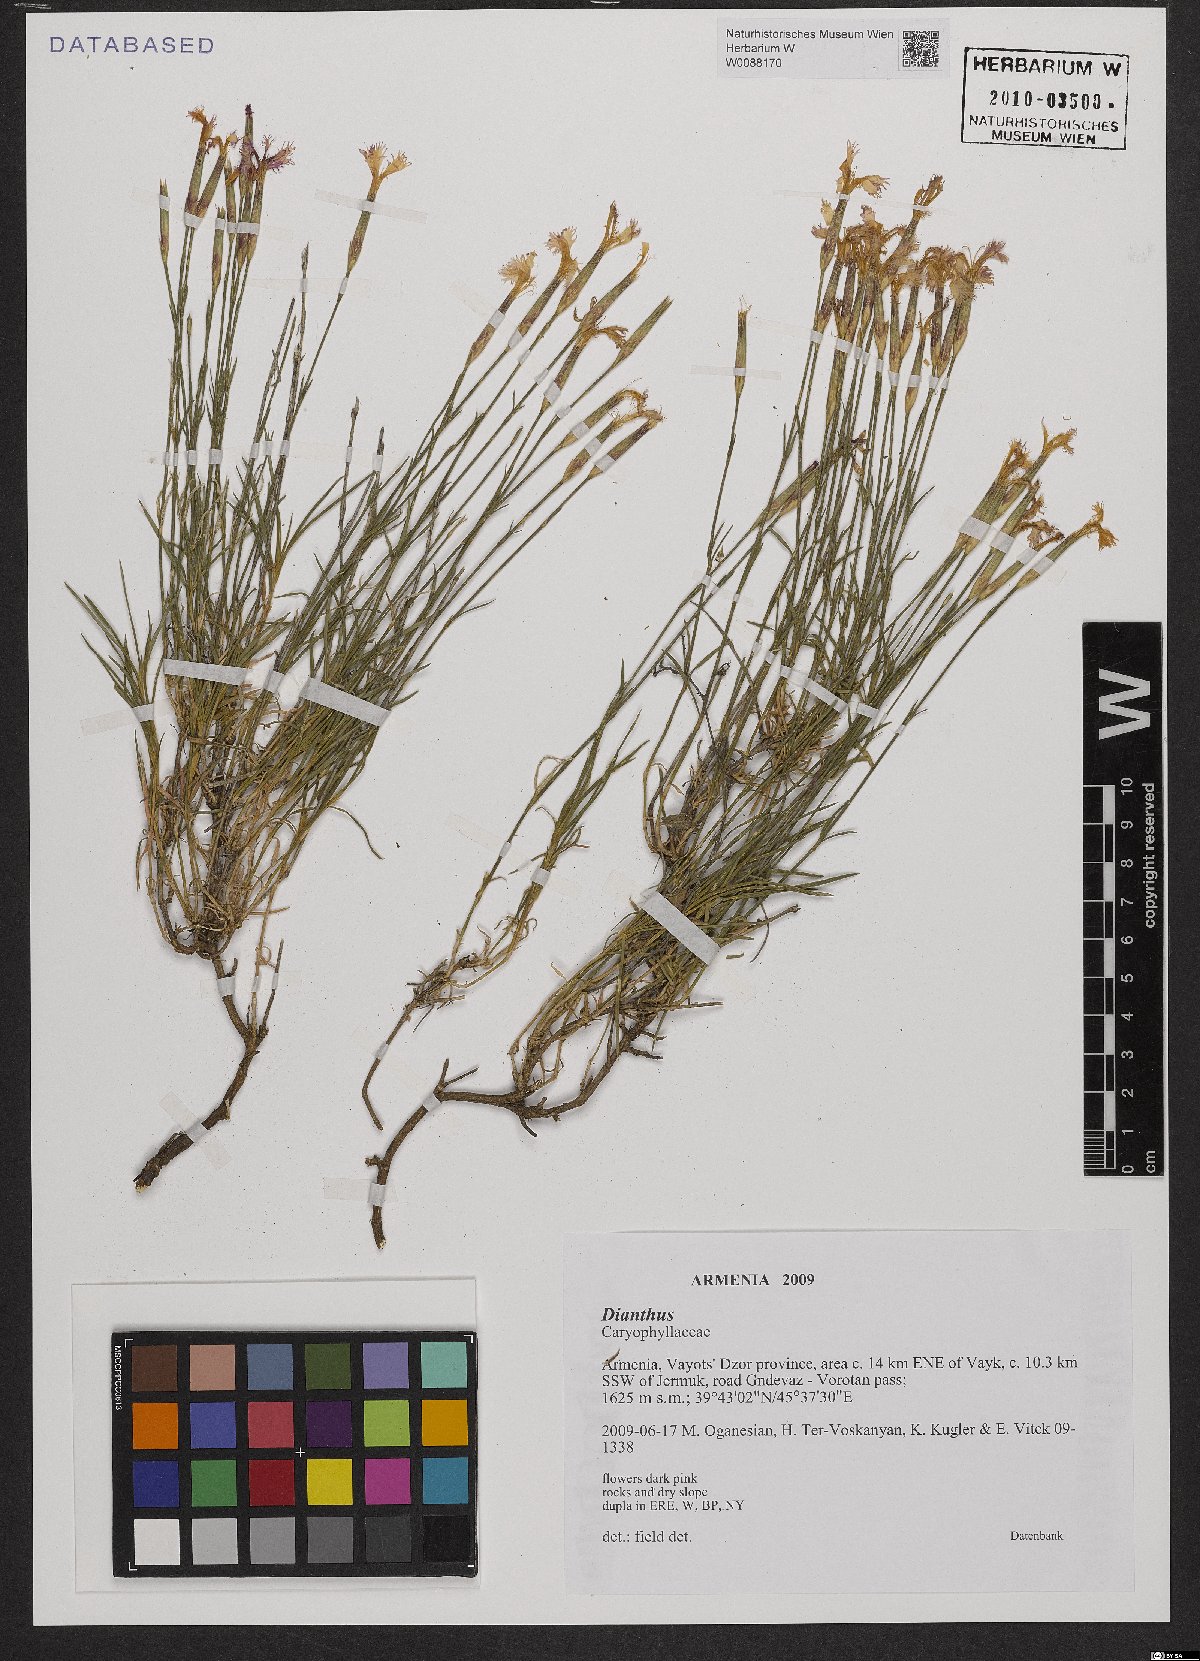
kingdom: Plantae
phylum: Tracheophyta
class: Magnoliopsida
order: Caryophyllales
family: Caryophyllaceae
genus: Dianthus
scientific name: Dianthus
